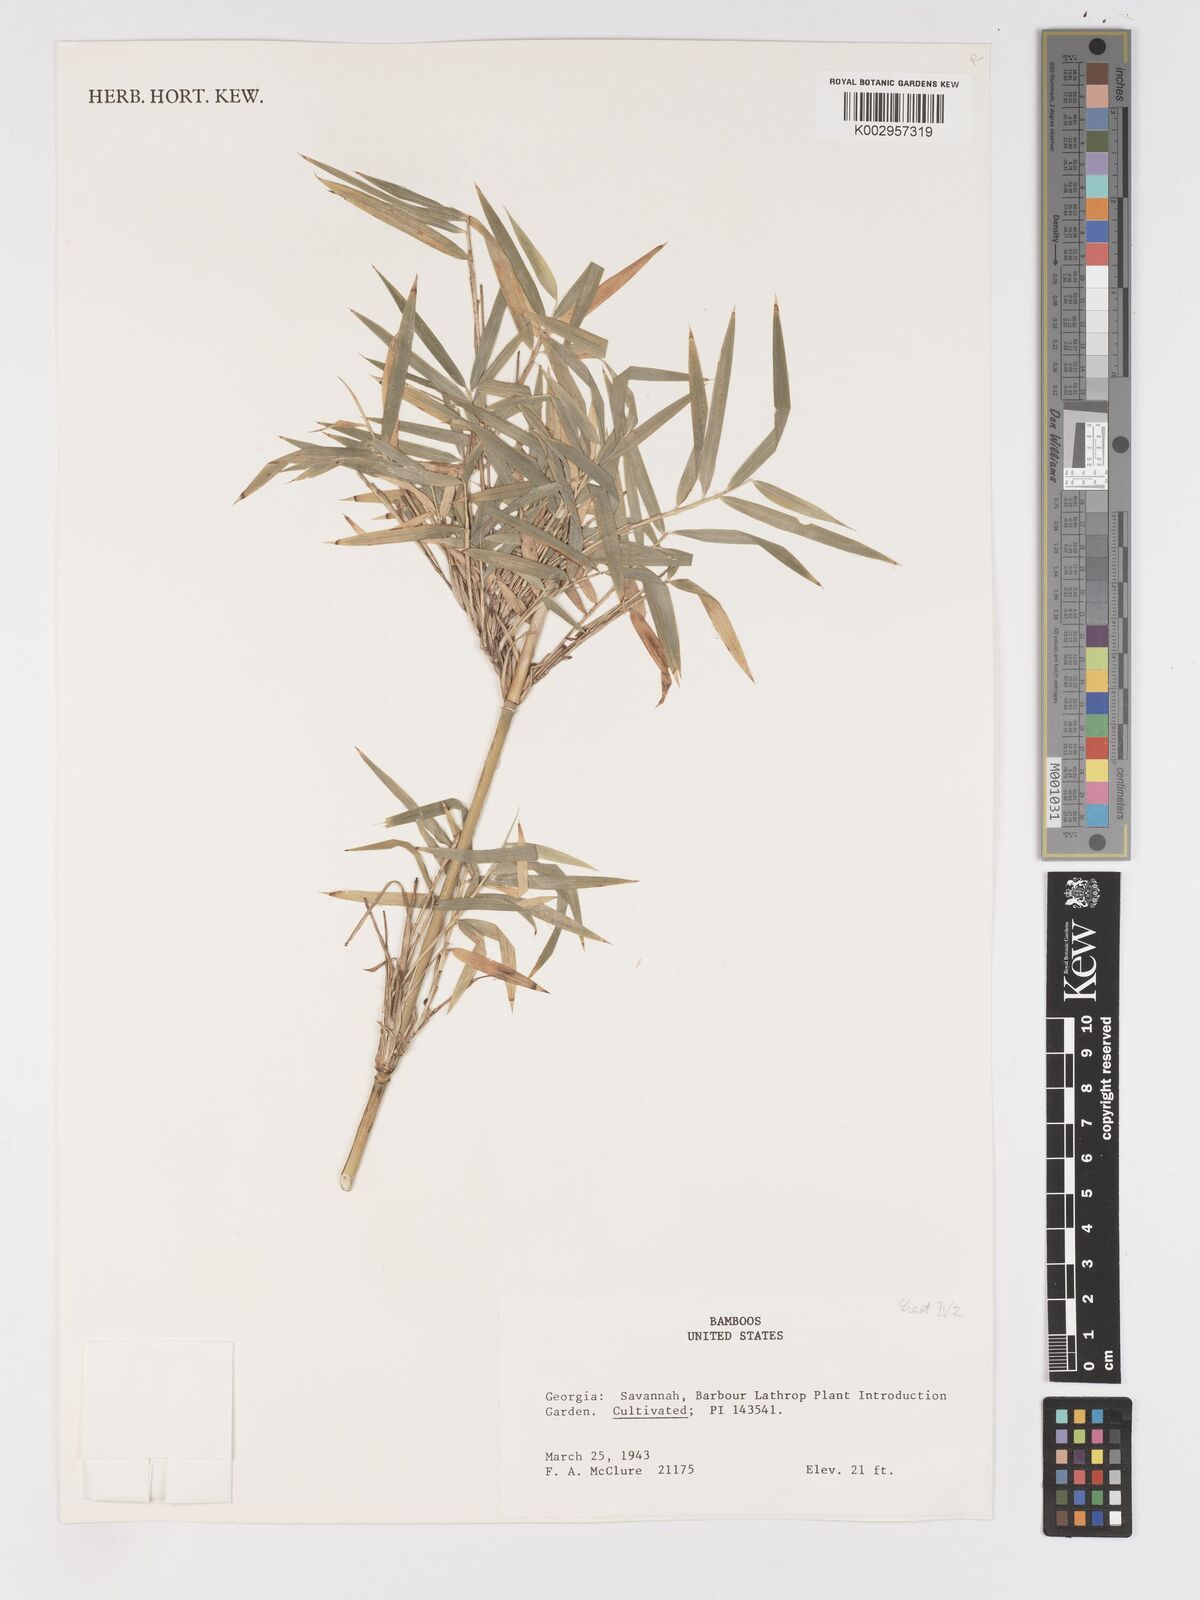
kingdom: Plantae
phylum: Tracheophyta
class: Liliopsida
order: Poales
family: Poaceae
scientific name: Poaceae
